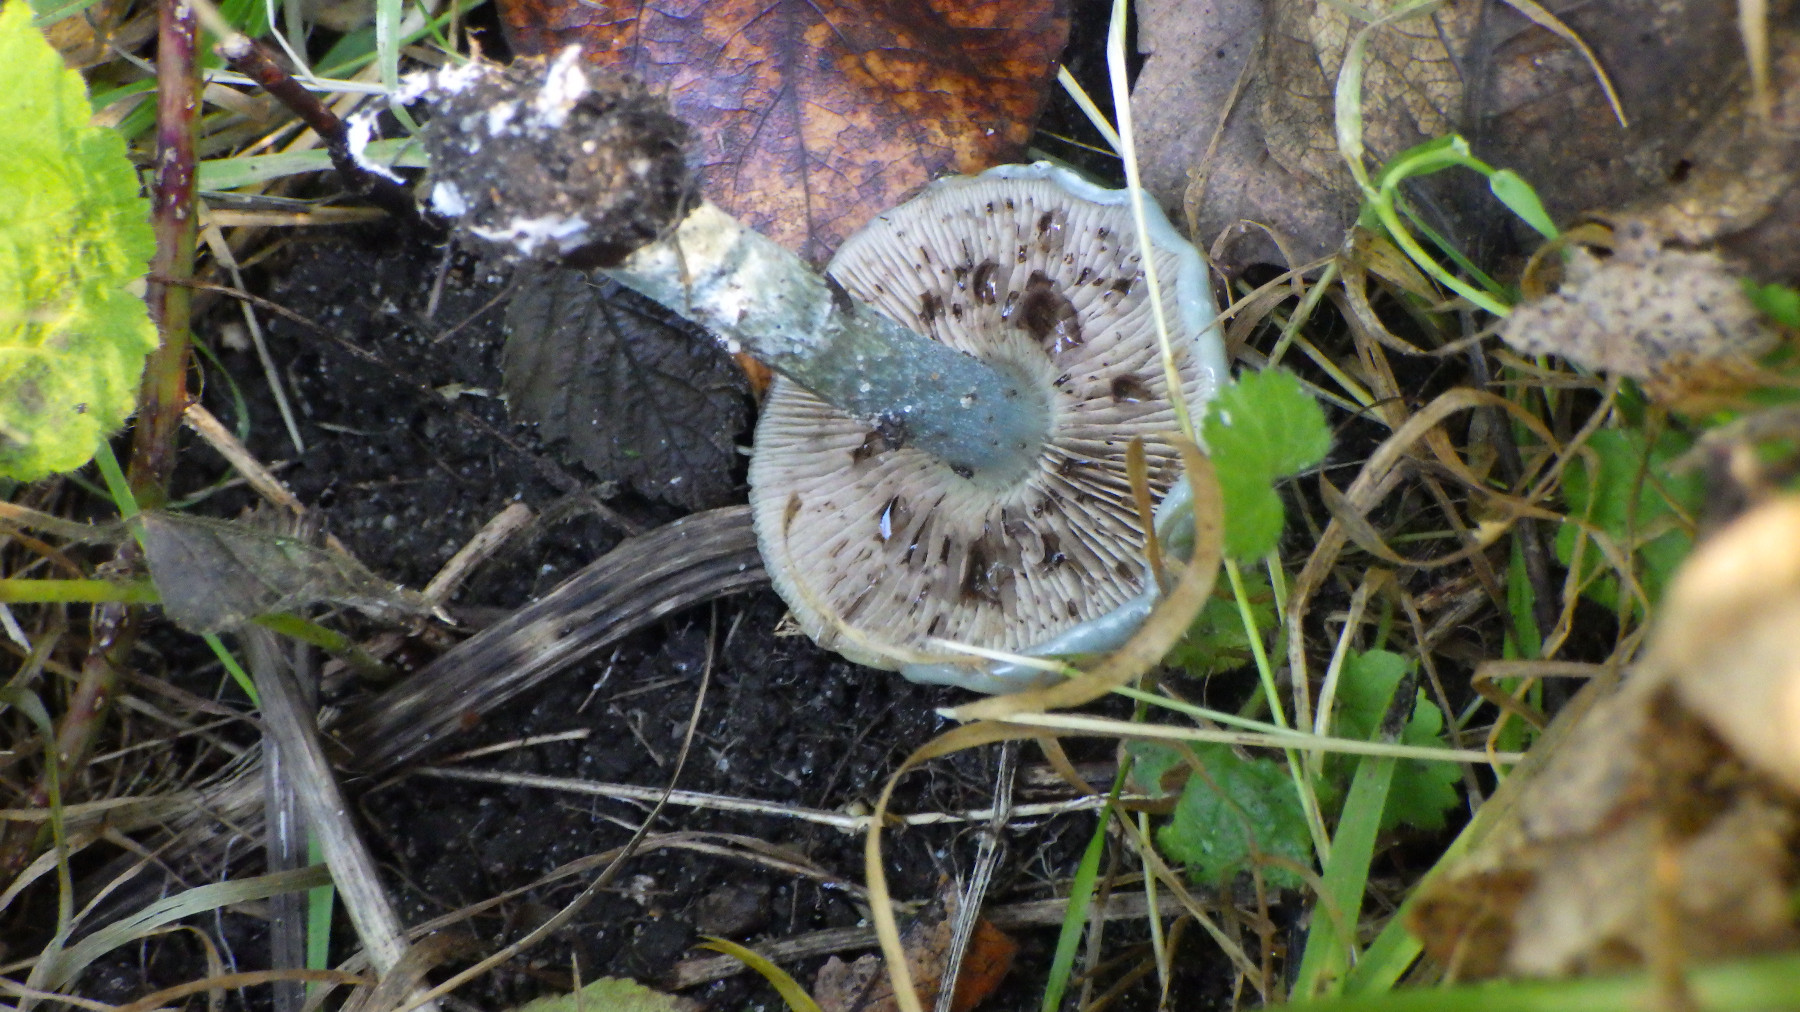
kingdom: Fungi
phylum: Basidiomycota
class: Agaricomycetes
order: Agaricales
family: Strophariaceae
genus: Stropharia
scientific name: Stropharia cyanea
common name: blågrøn bredblad
